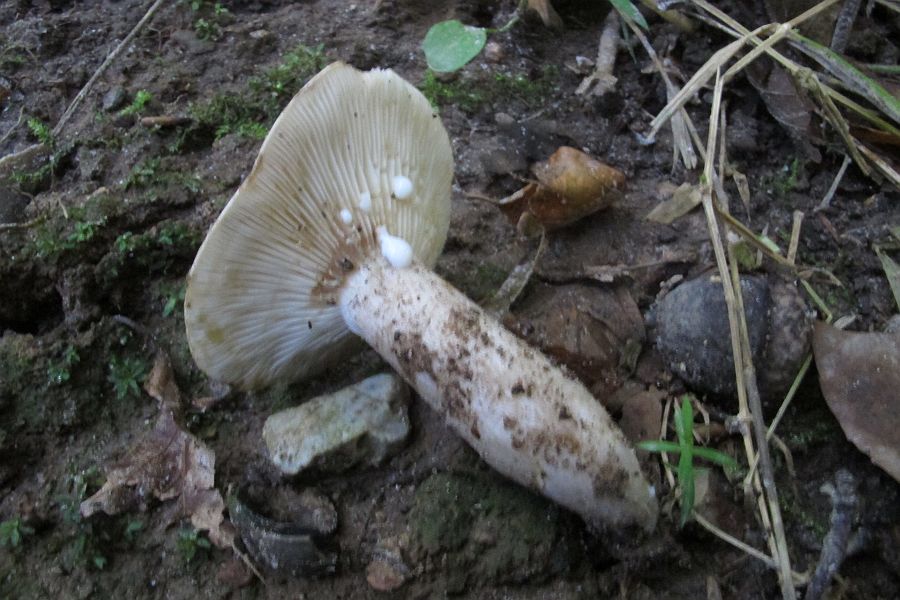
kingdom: Fungi
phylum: Basidiomycota
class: Agaricomycetes
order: Russulales
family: Russulaceae
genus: Lactarius
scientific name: Lactarius fluens
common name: lysrandet mælkehat
